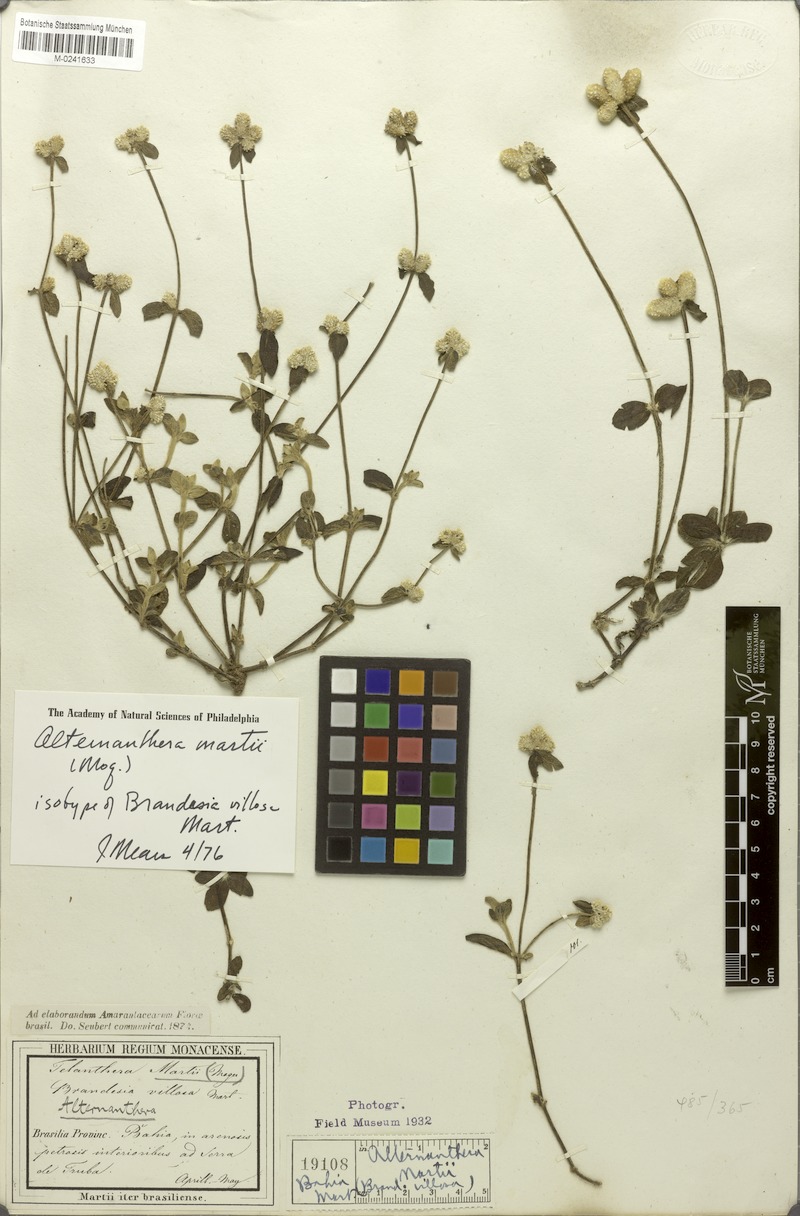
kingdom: Plantae
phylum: Tracheophyta
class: Magnoliopsida
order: Caryophyllales
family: Amaranthaceae
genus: Alternanthera
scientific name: Alternanthera martii
